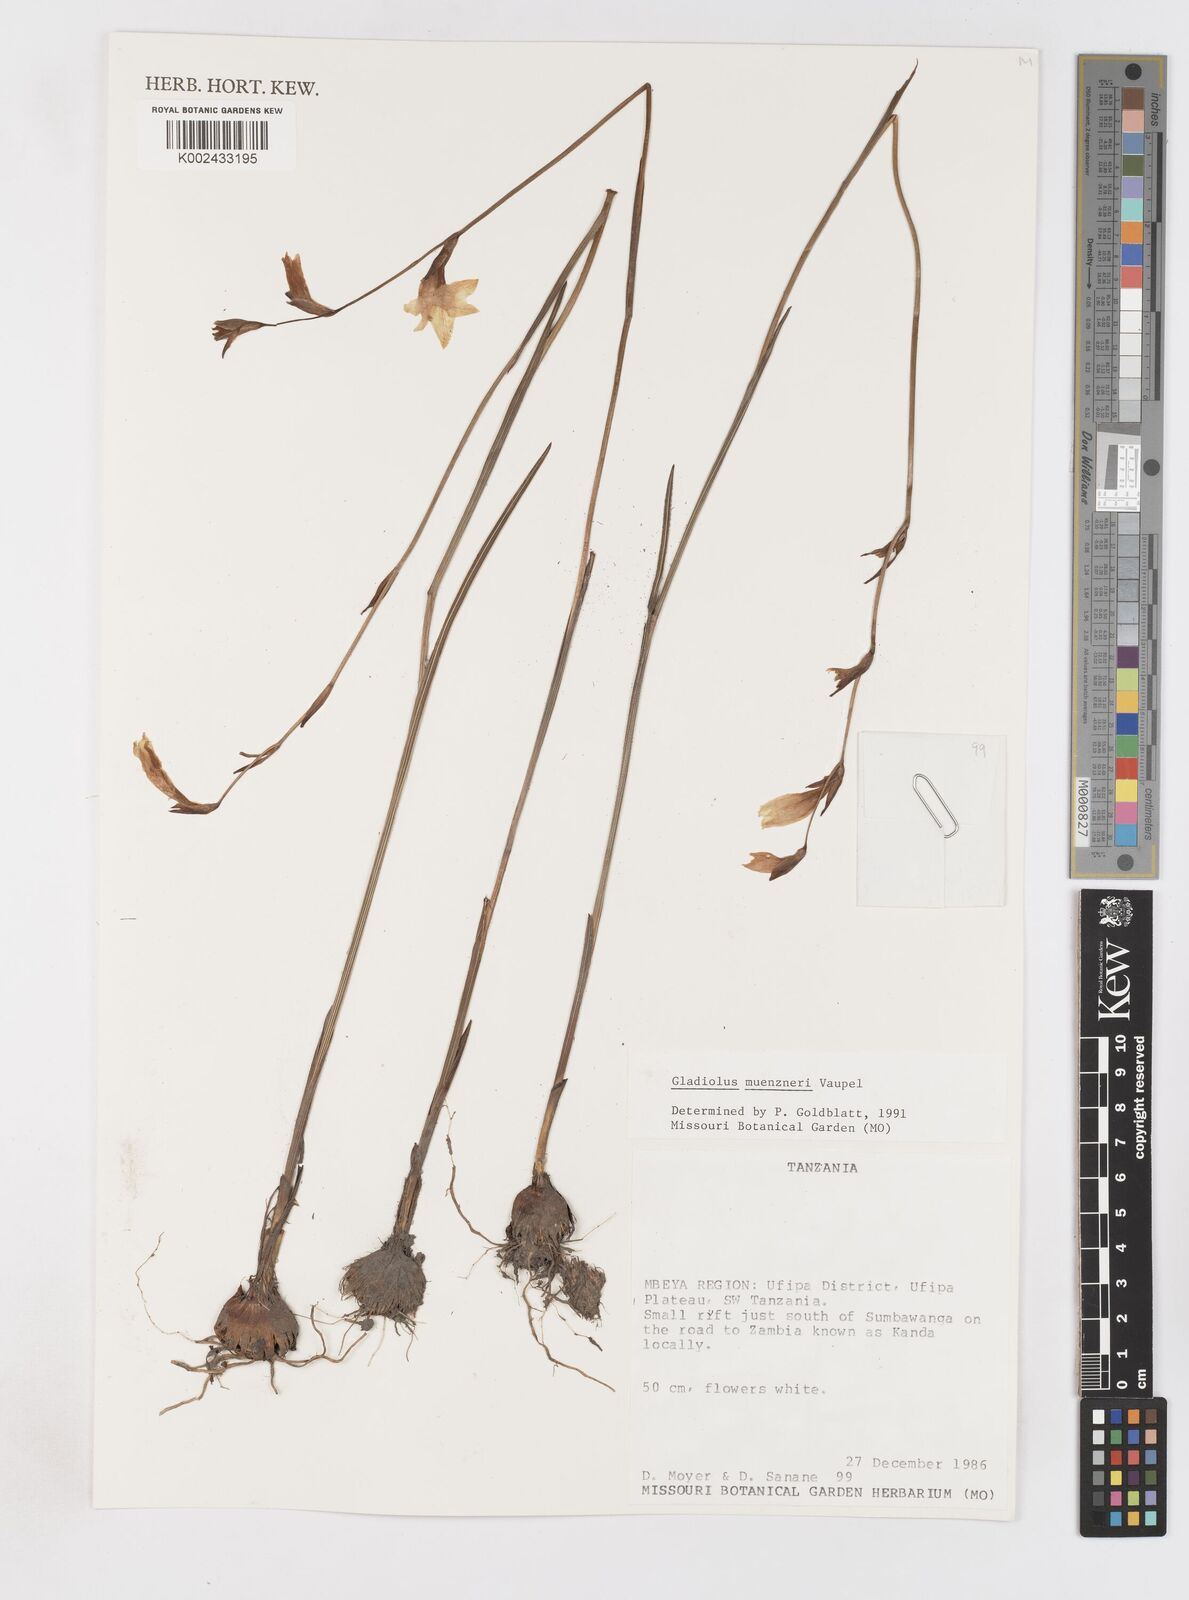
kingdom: Plantae
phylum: Tracheophyta
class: Liliopsida
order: Asparagales
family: Iridaceae
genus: Gladiolus
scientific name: Gladiolus muenzneri
